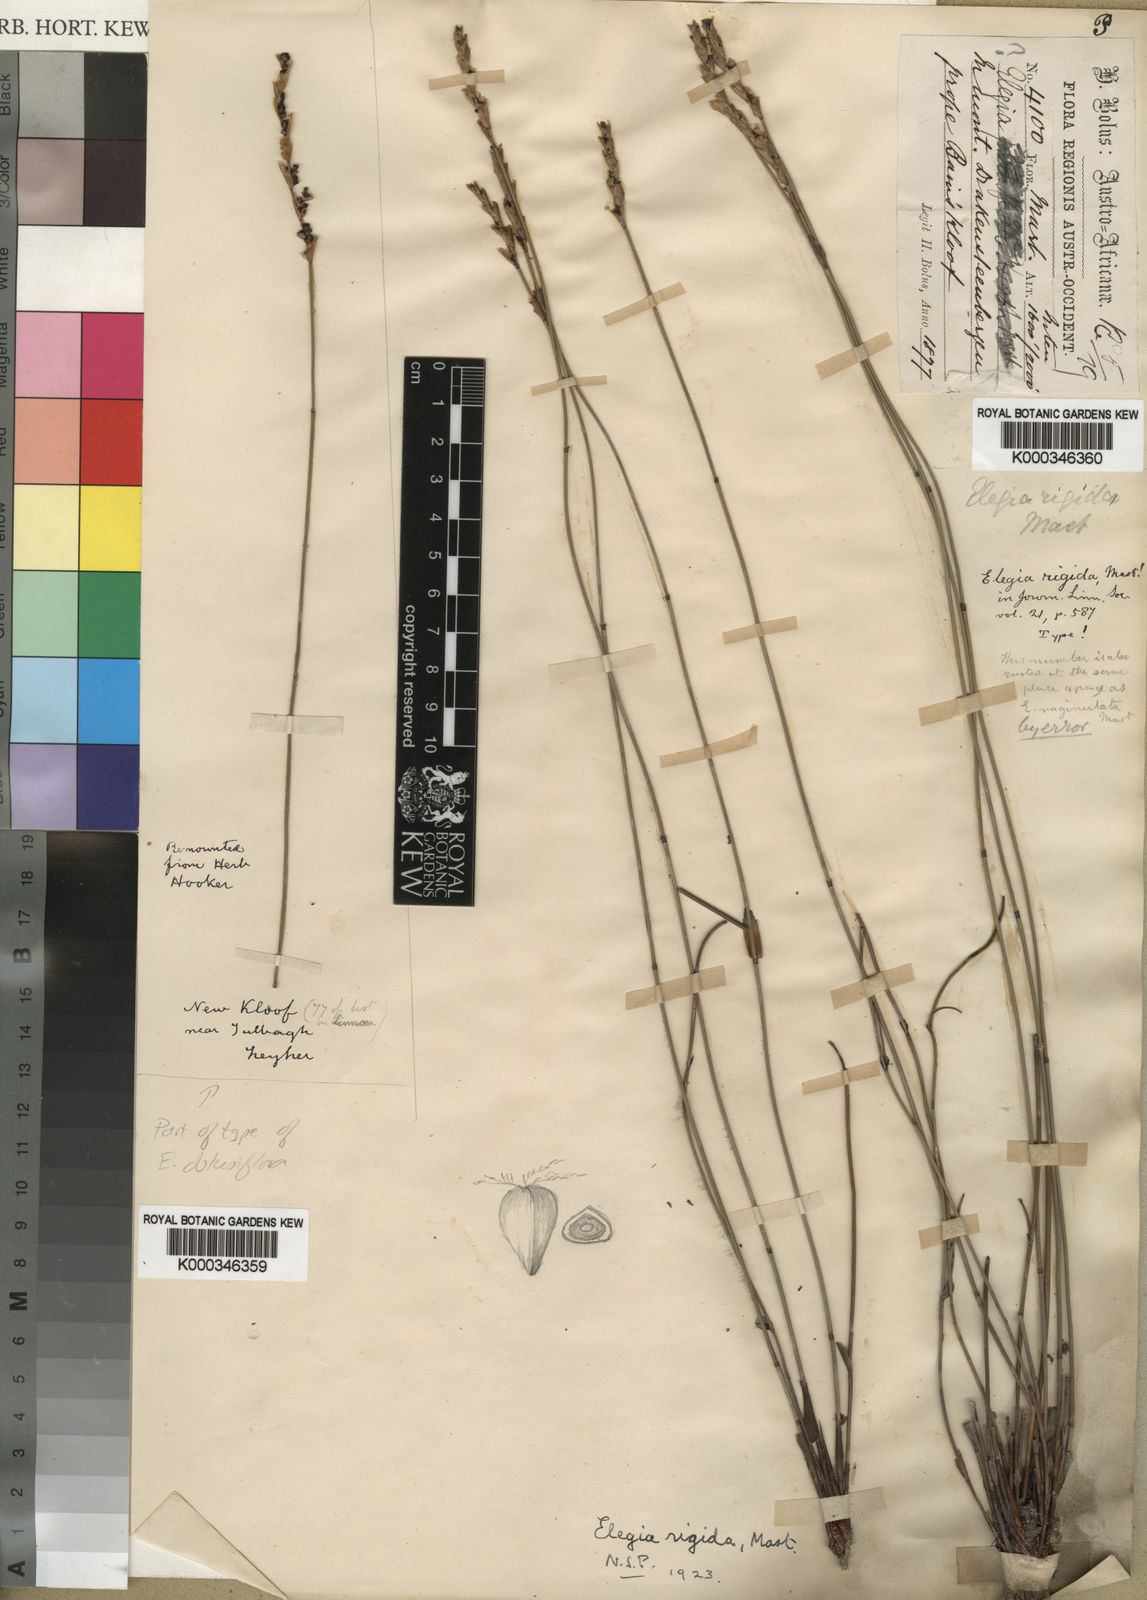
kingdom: Plantae
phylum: Tracheophyta
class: Liliopsida
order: Poales
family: Restionaceae
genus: Elegia
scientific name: Elegia rigida
